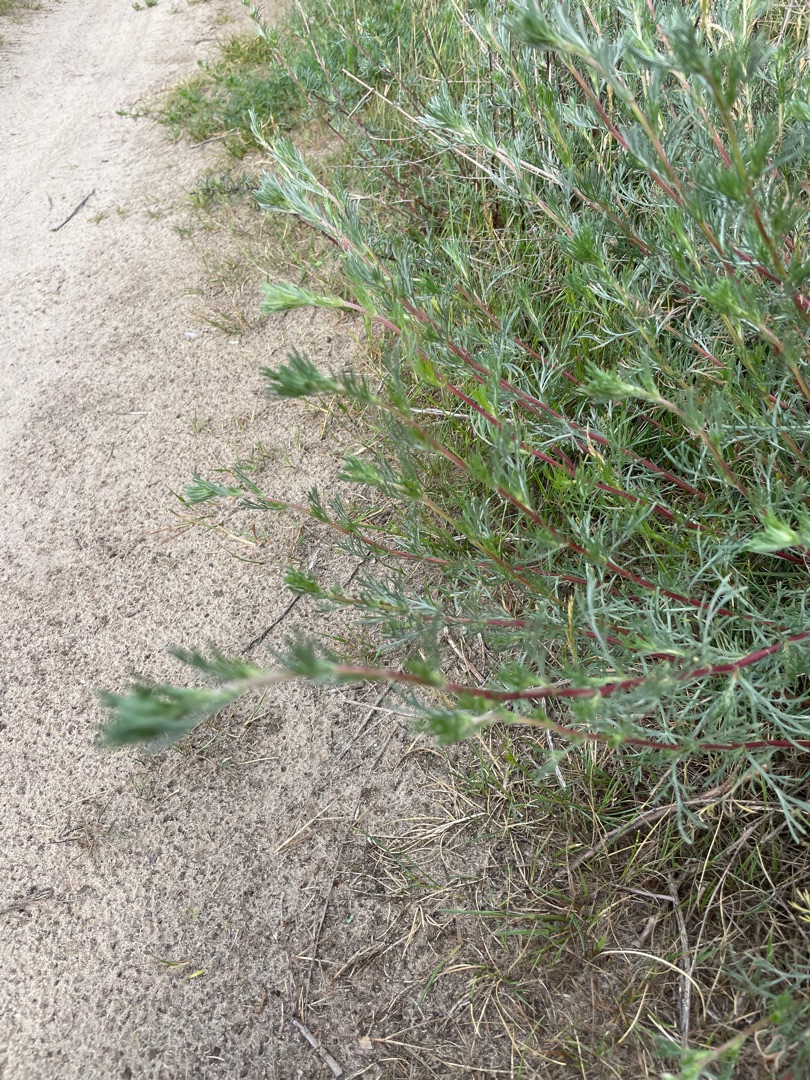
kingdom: Plantae
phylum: Tracheophyta
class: Magnoliopsida
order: Asterales
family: Asteraceae
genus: Artemisia
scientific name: Artemisia campestris
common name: Mark-bynke
